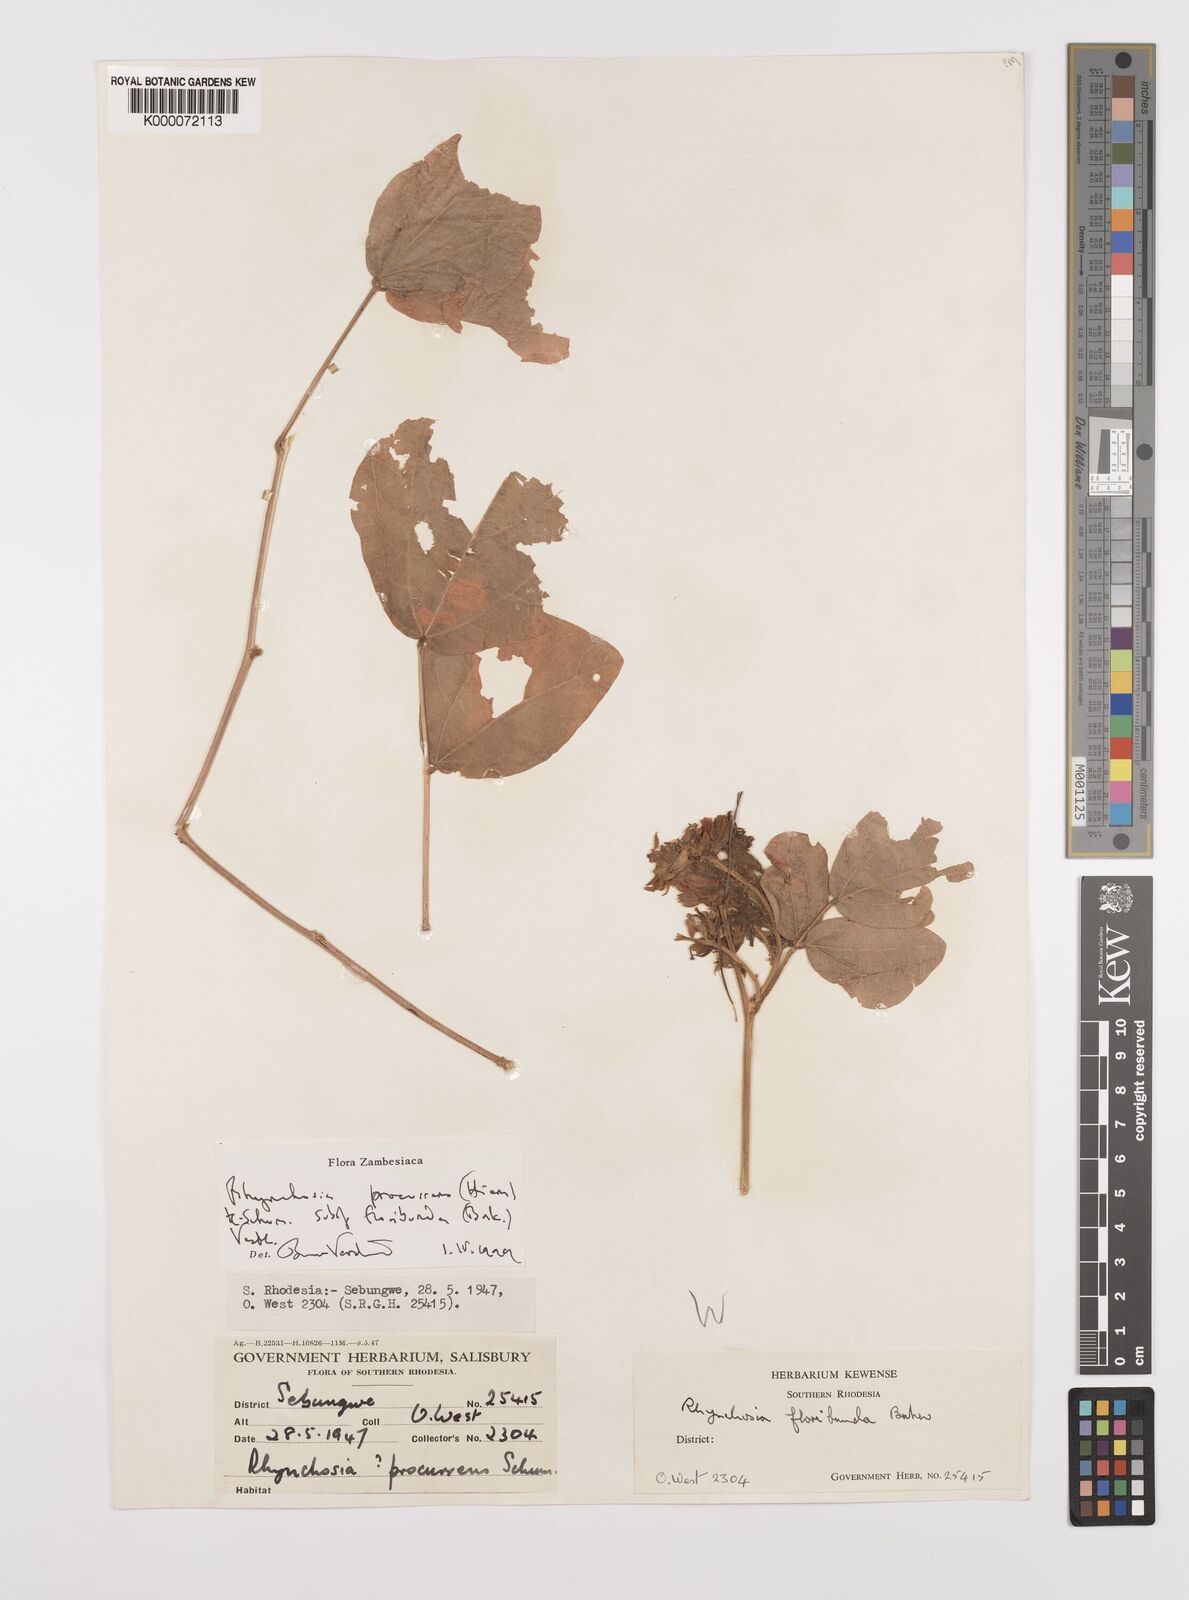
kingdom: Plantae
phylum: Tracheophyta
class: Magnoliopsida
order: Fabales
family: Fabaceae
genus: Rhynchosia
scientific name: Rhynchosia procurrens
